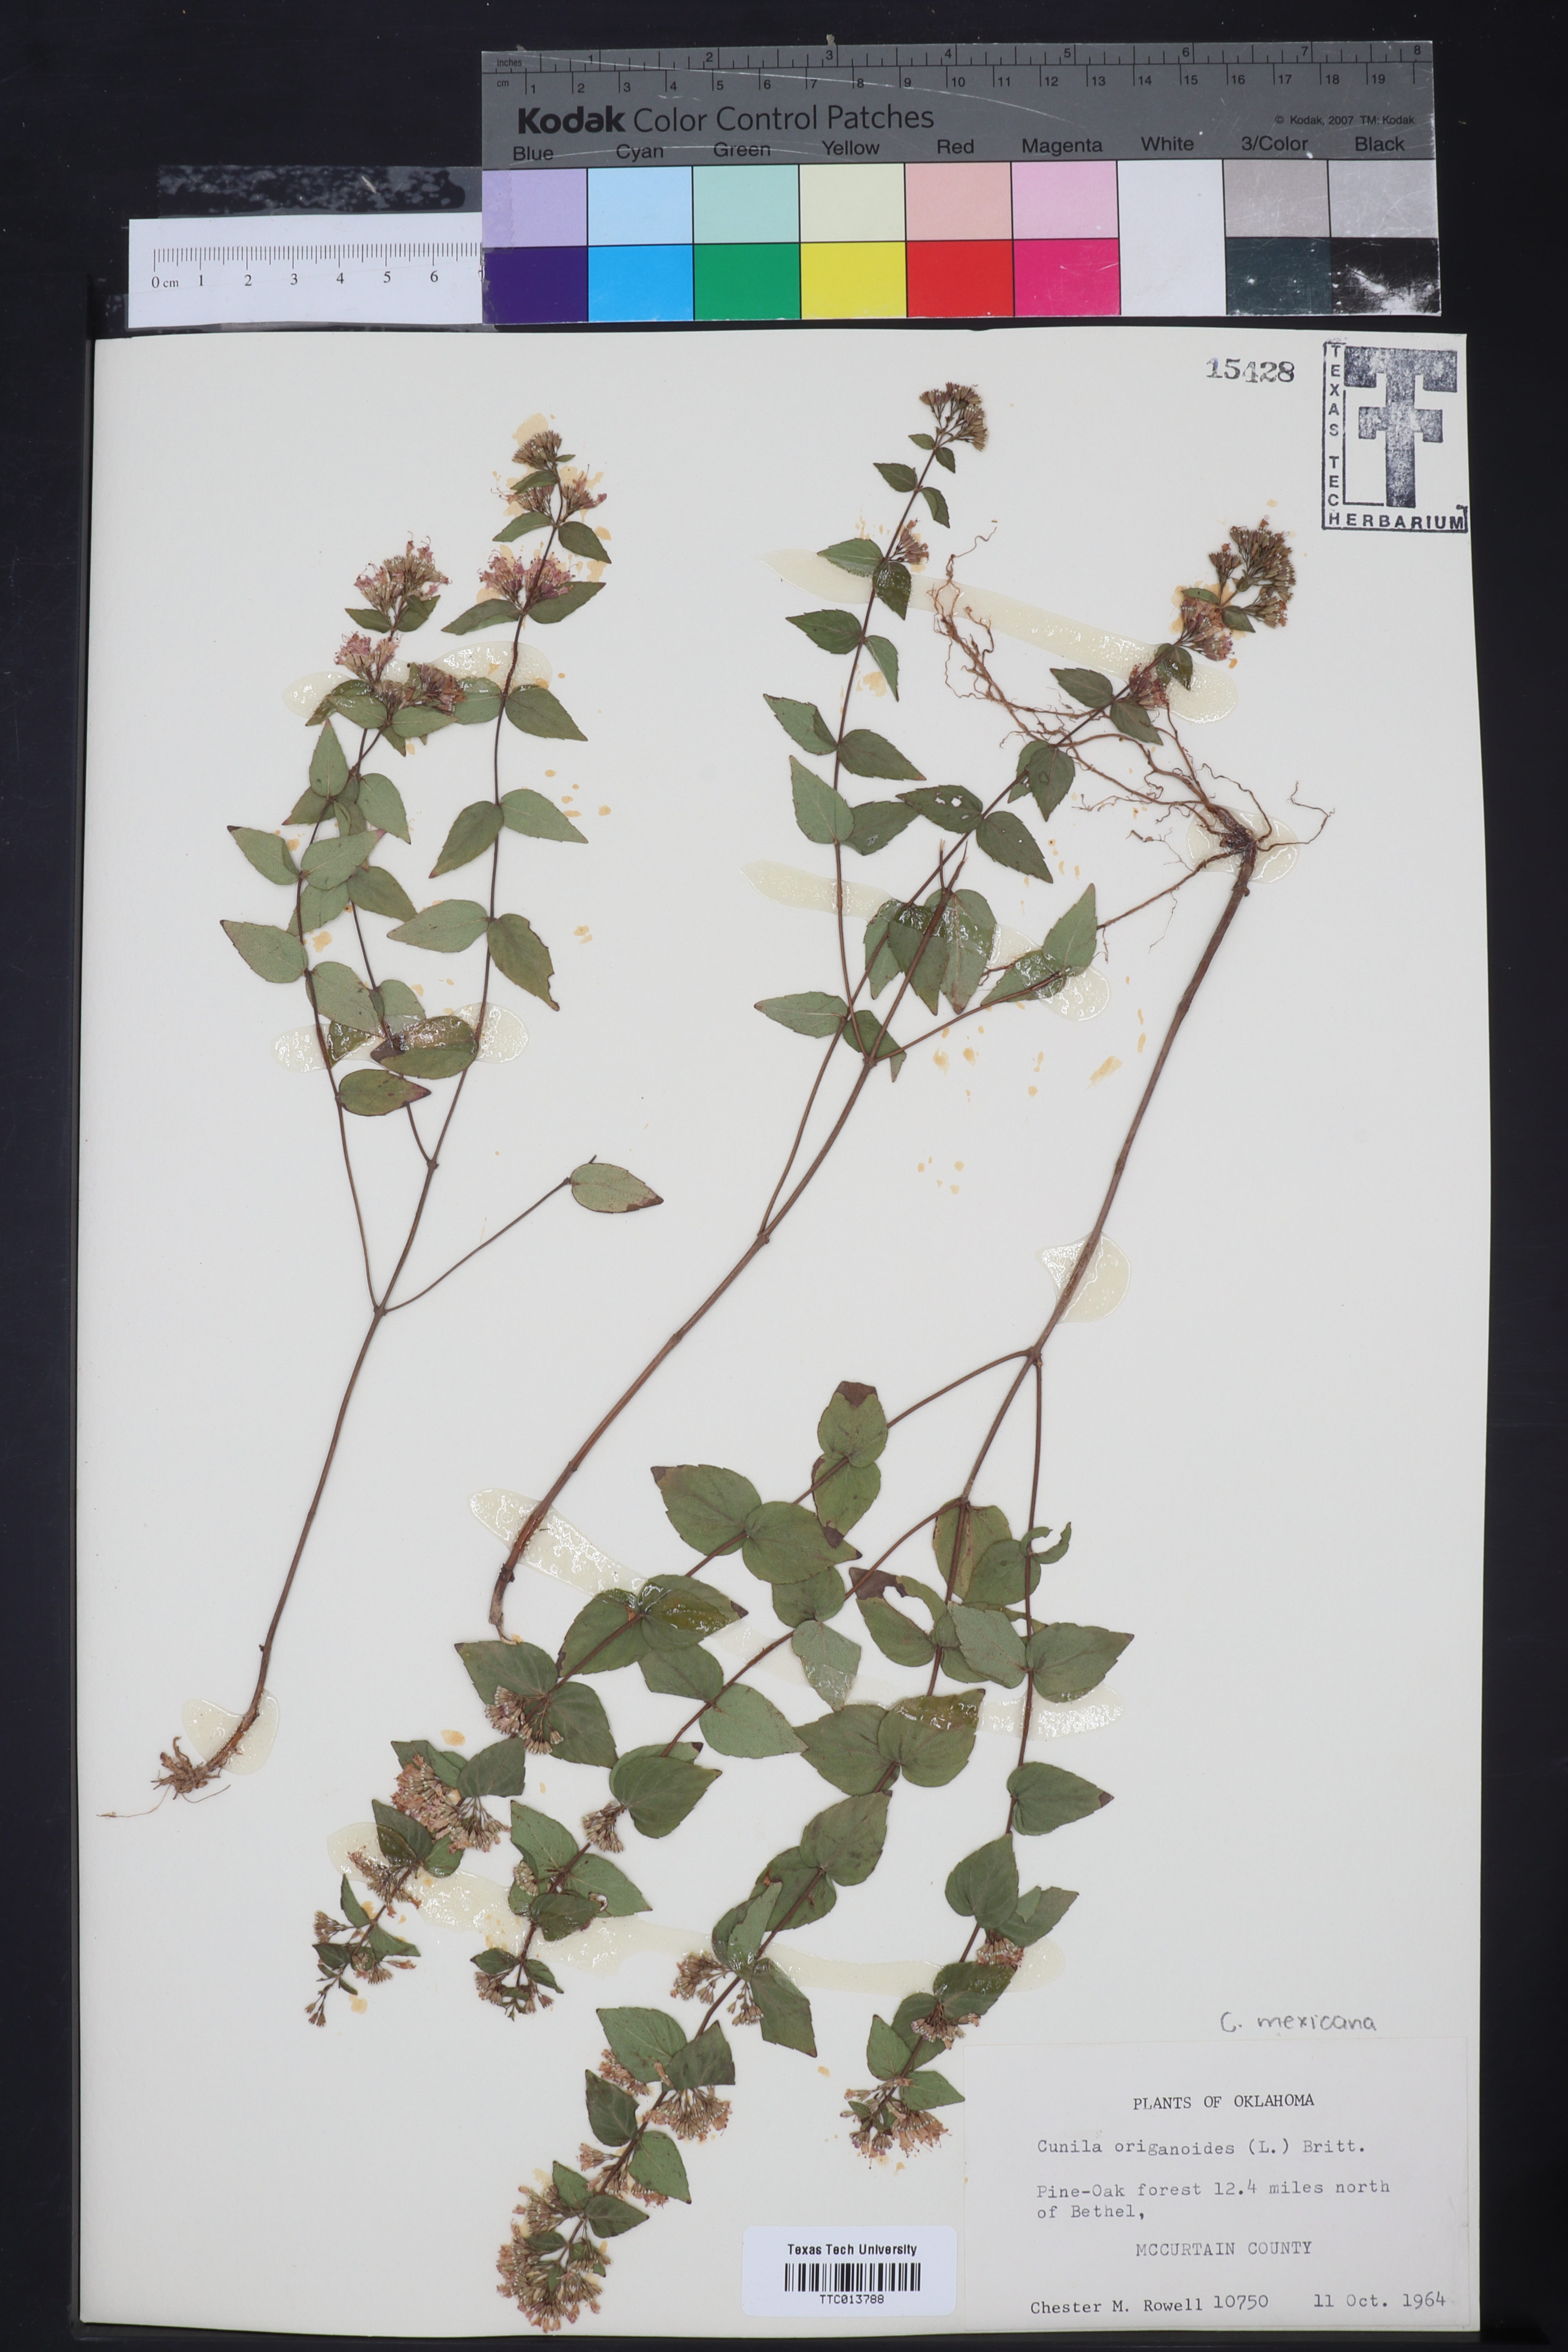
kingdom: Plantae
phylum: Tracheophyta
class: Magnoliopsida
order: Lamiales
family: Lamiaceae
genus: Cunila
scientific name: Cunila origanoides
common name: American dittany
